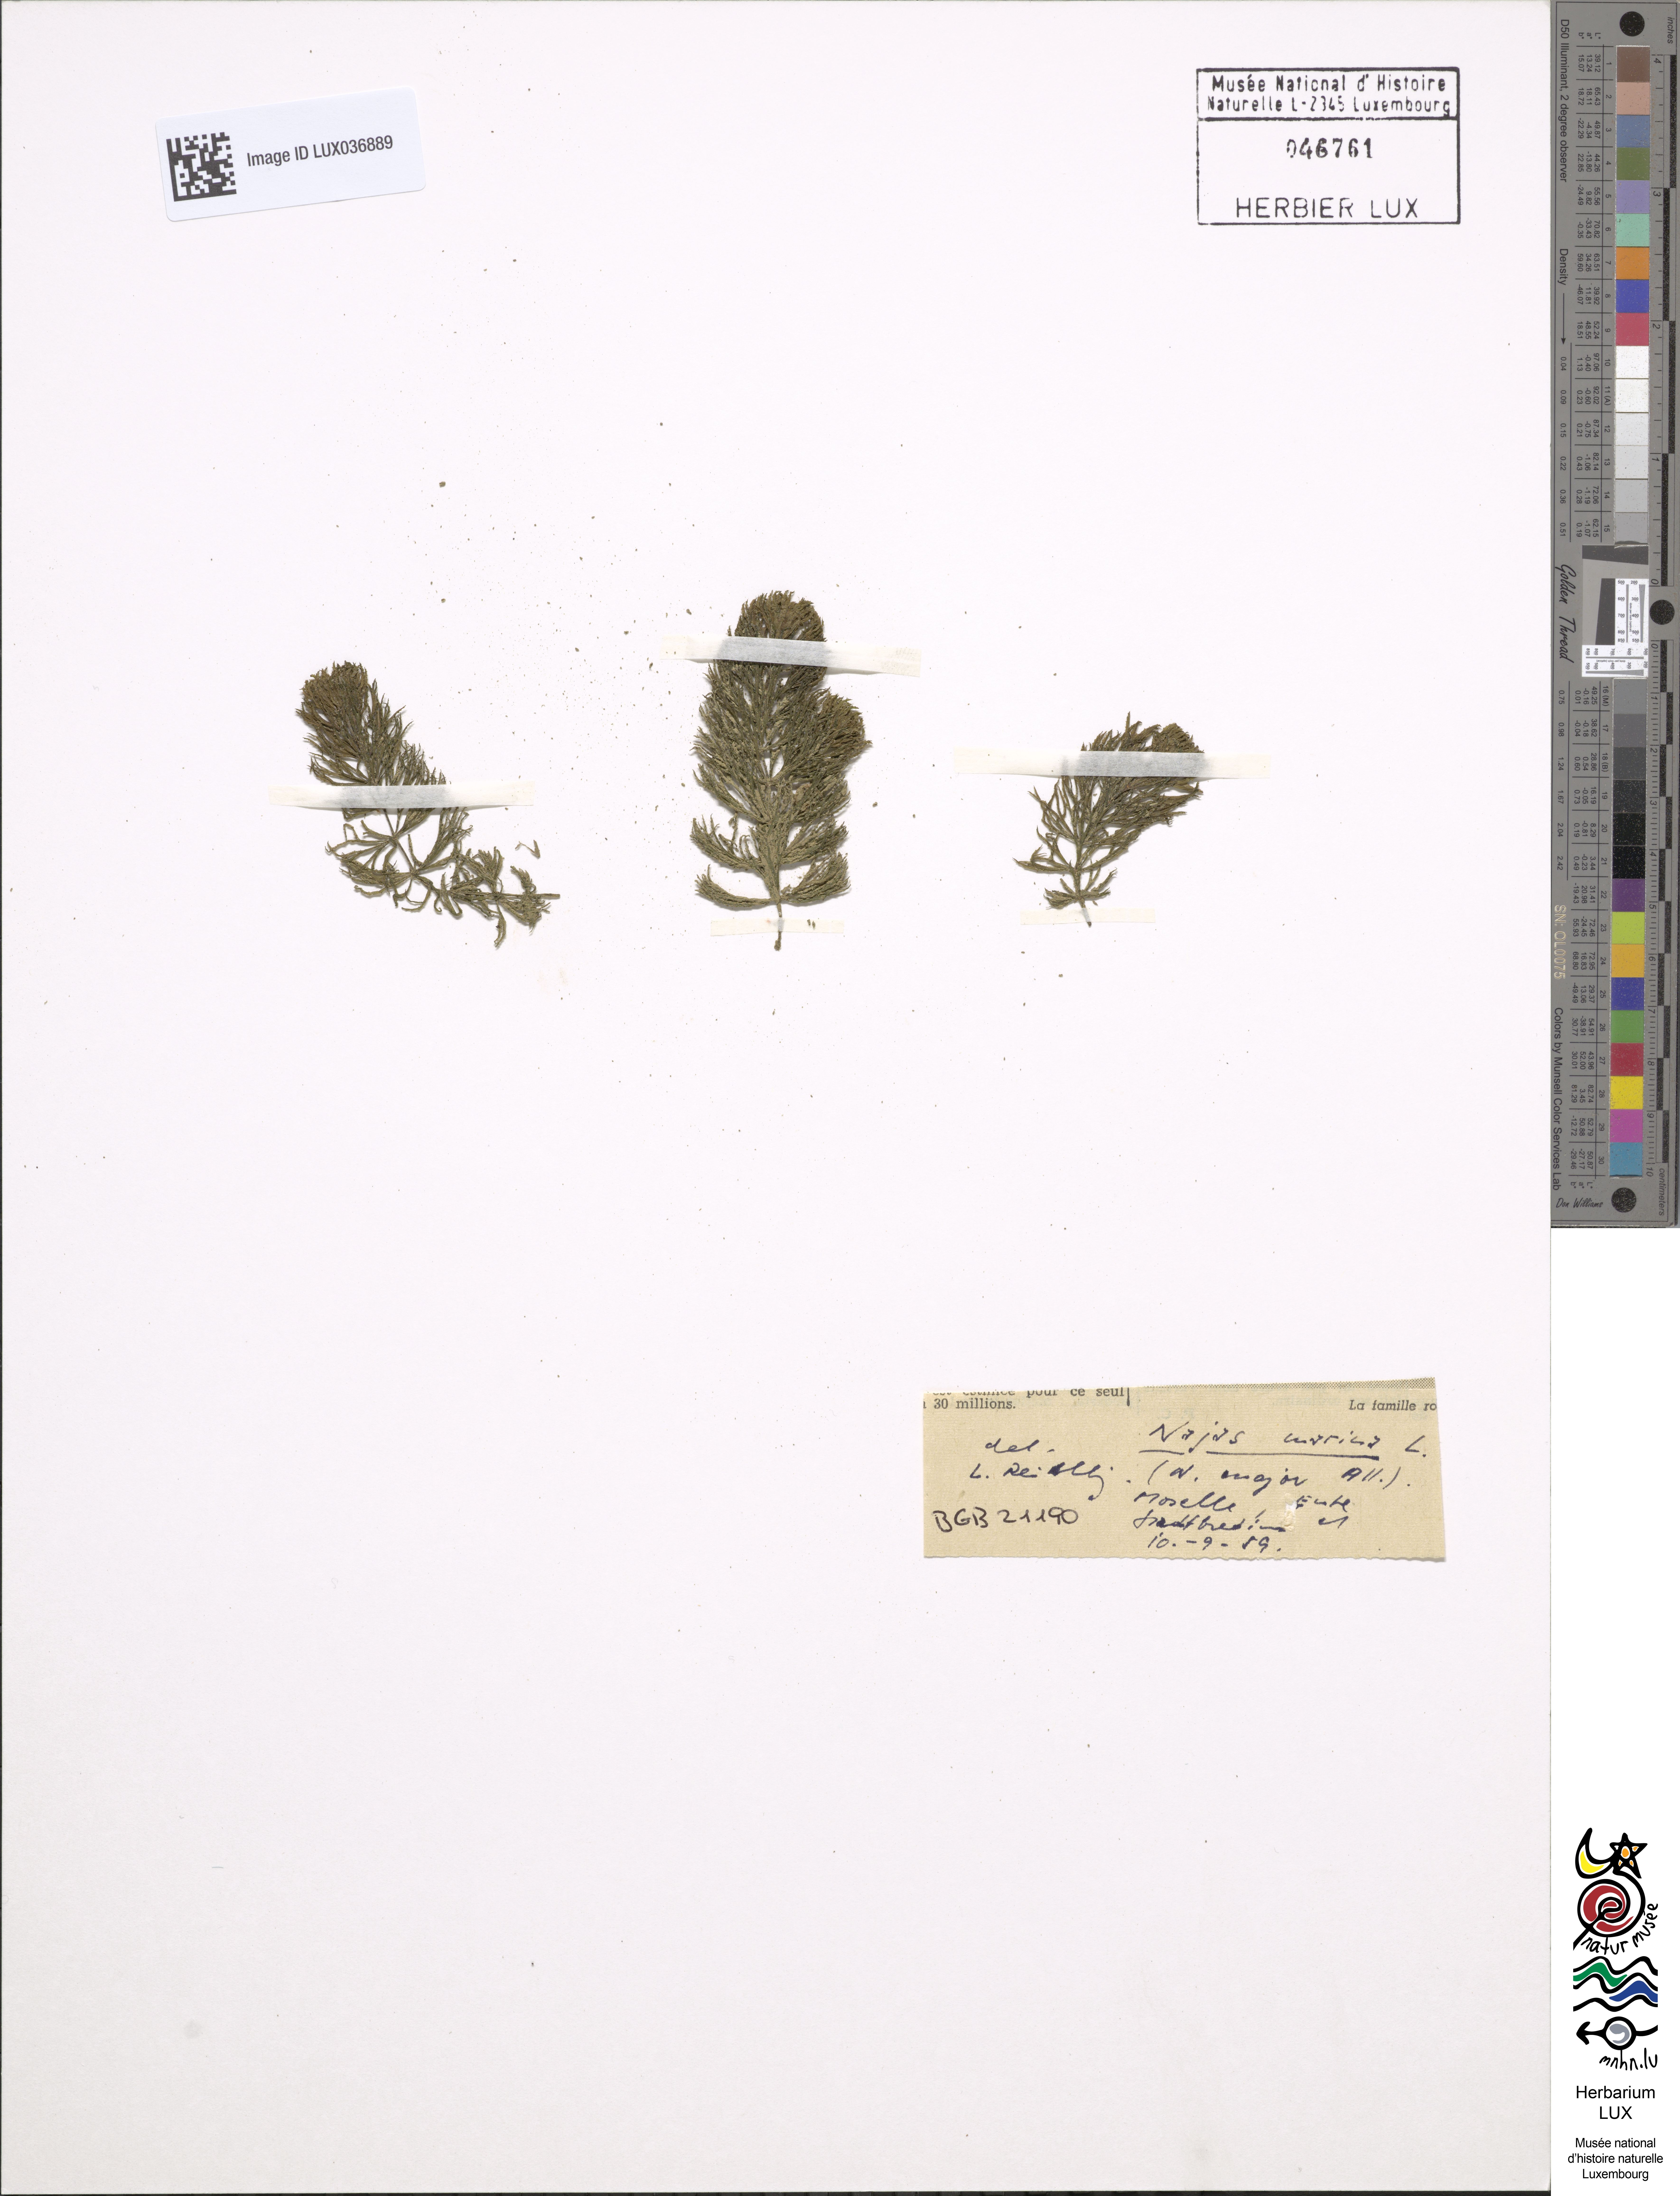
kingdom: Plantae
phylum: Tracheophyta
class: Liliopsida
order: Alismatales
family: Hydrocharitaceae
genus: Najas
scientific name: Najas marina
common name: Holly-leaved naiad
